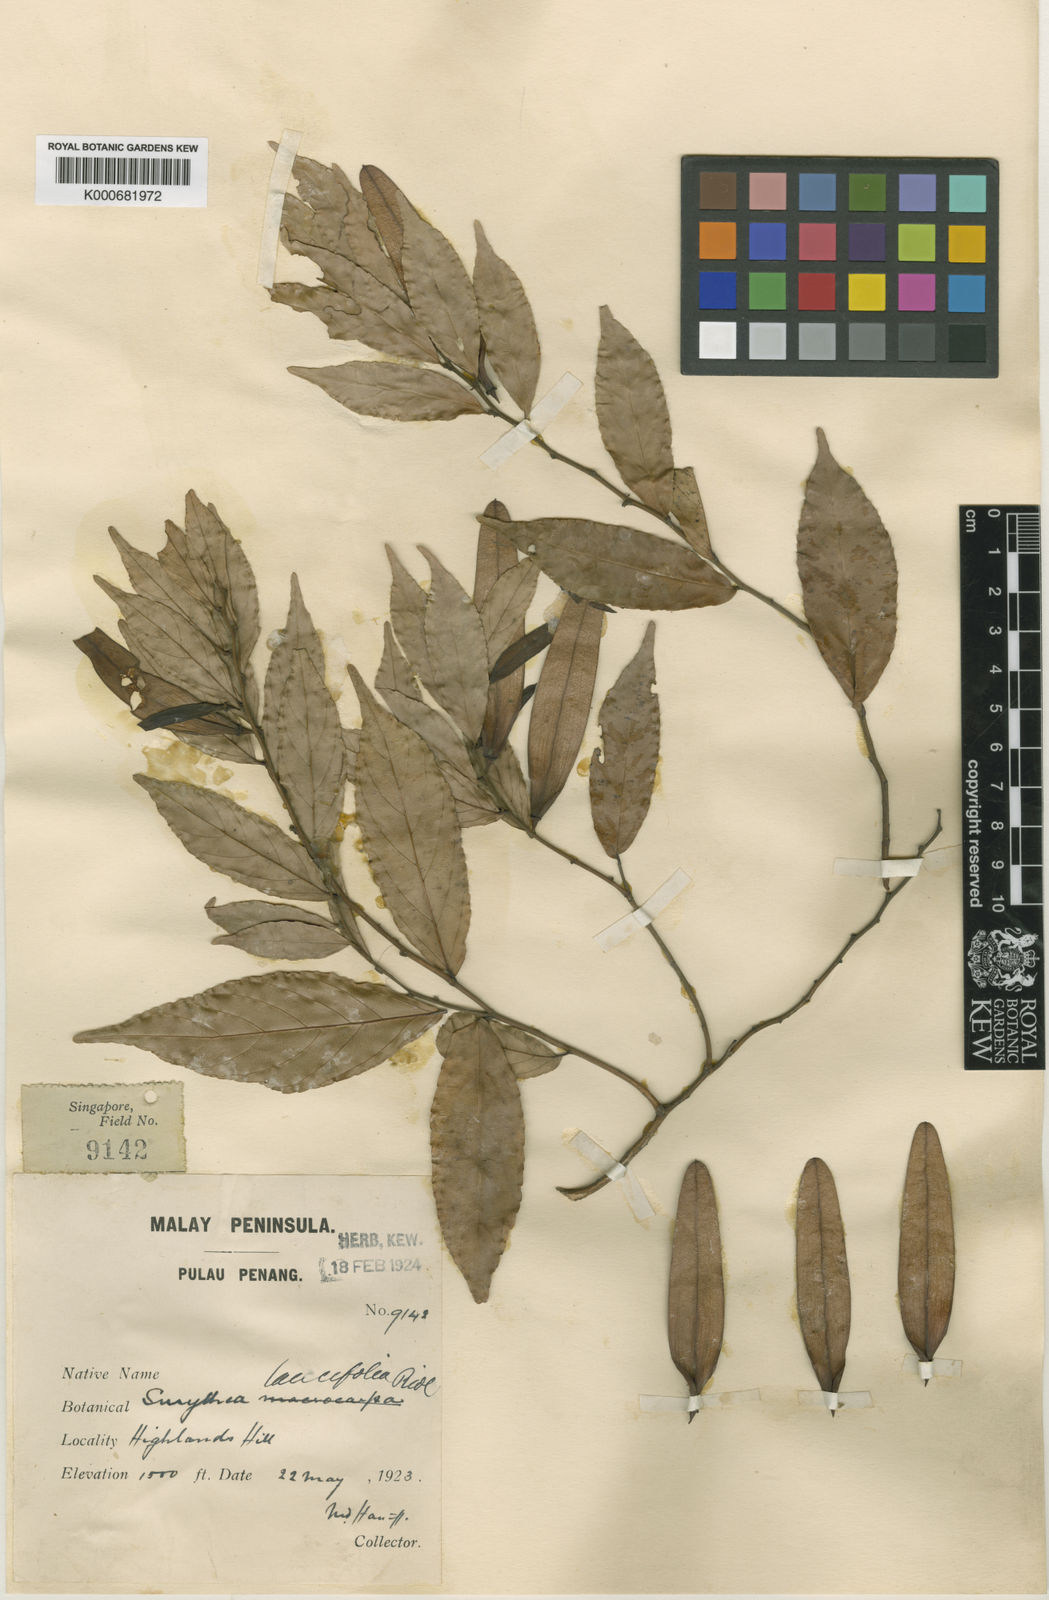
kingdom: Plantae
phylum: Tracheophyta
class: Magnoliopsida
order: Rosales
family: Rhamnaceae
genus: Smythea
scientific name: Smythea macrocarpa
